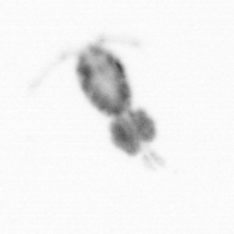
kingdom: Animalia
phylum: Arthropoda
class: Copepoda
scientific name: Copepoda
